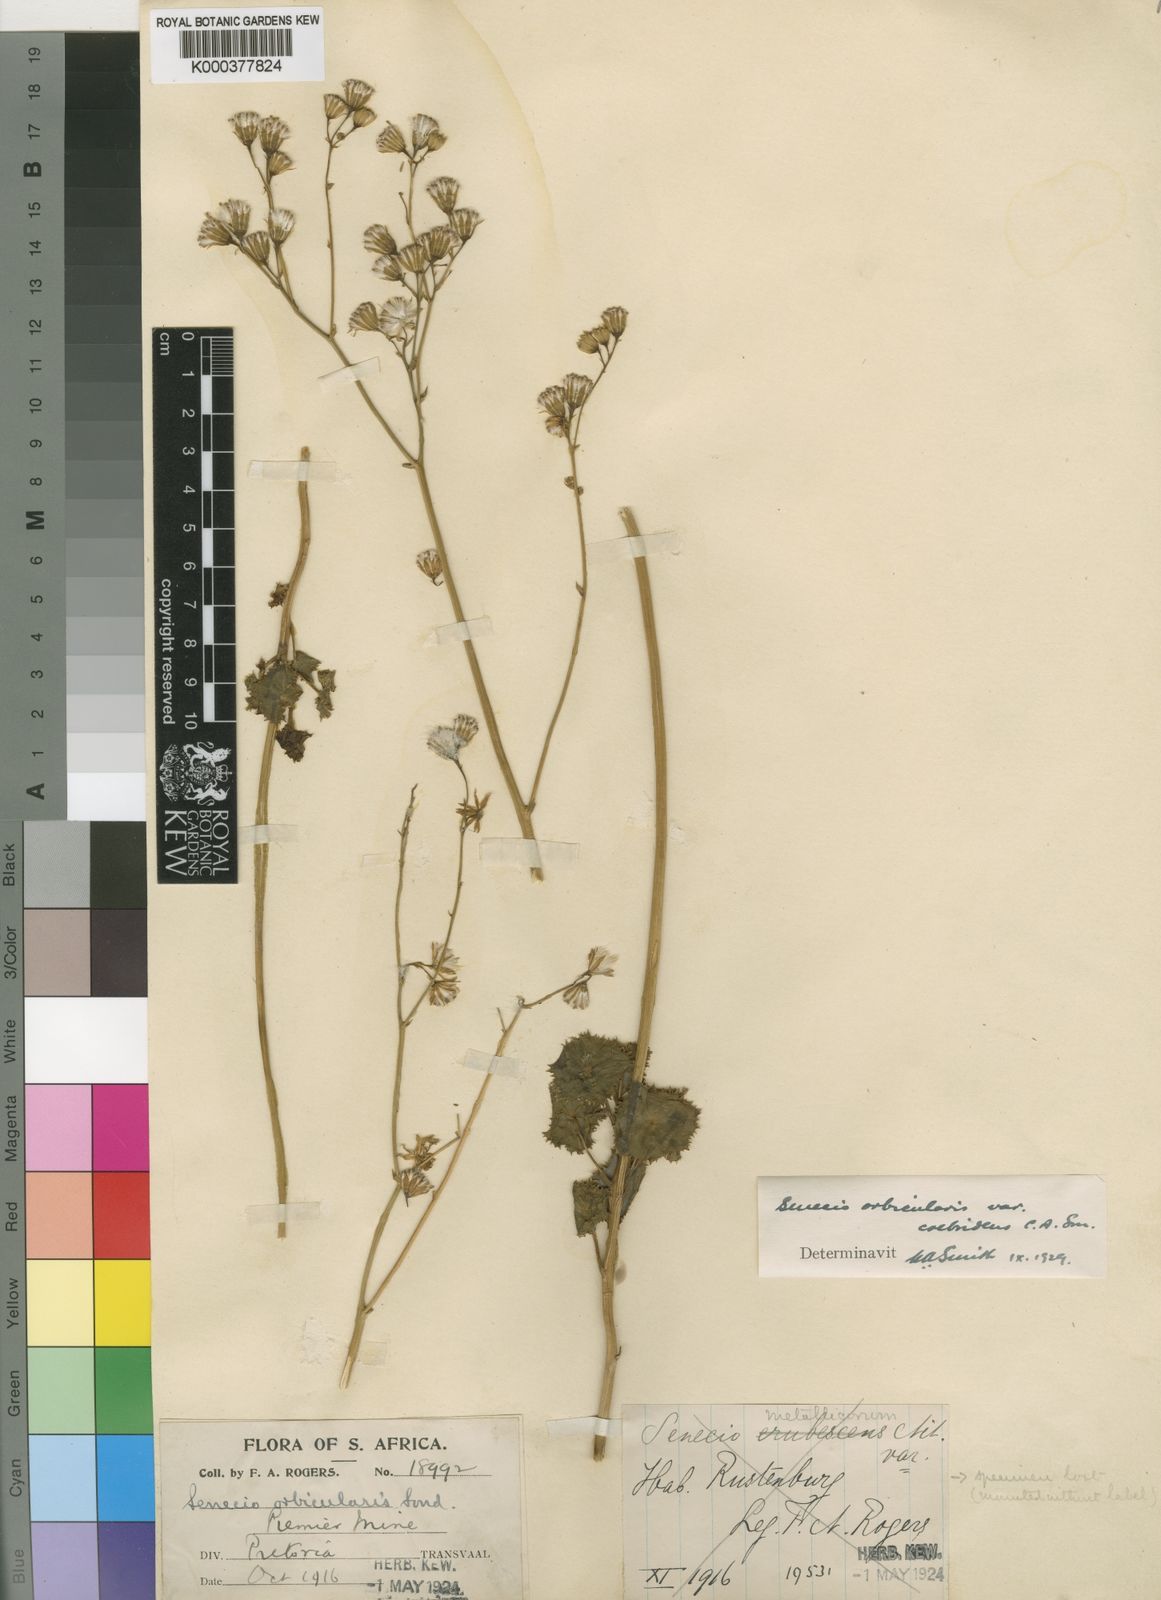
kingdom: Plantae
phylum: Tracheophyta
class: Magnoliopsida
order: Asterales
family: Asteraceae
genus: Senecio
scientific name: Senecio oxyriifolius
